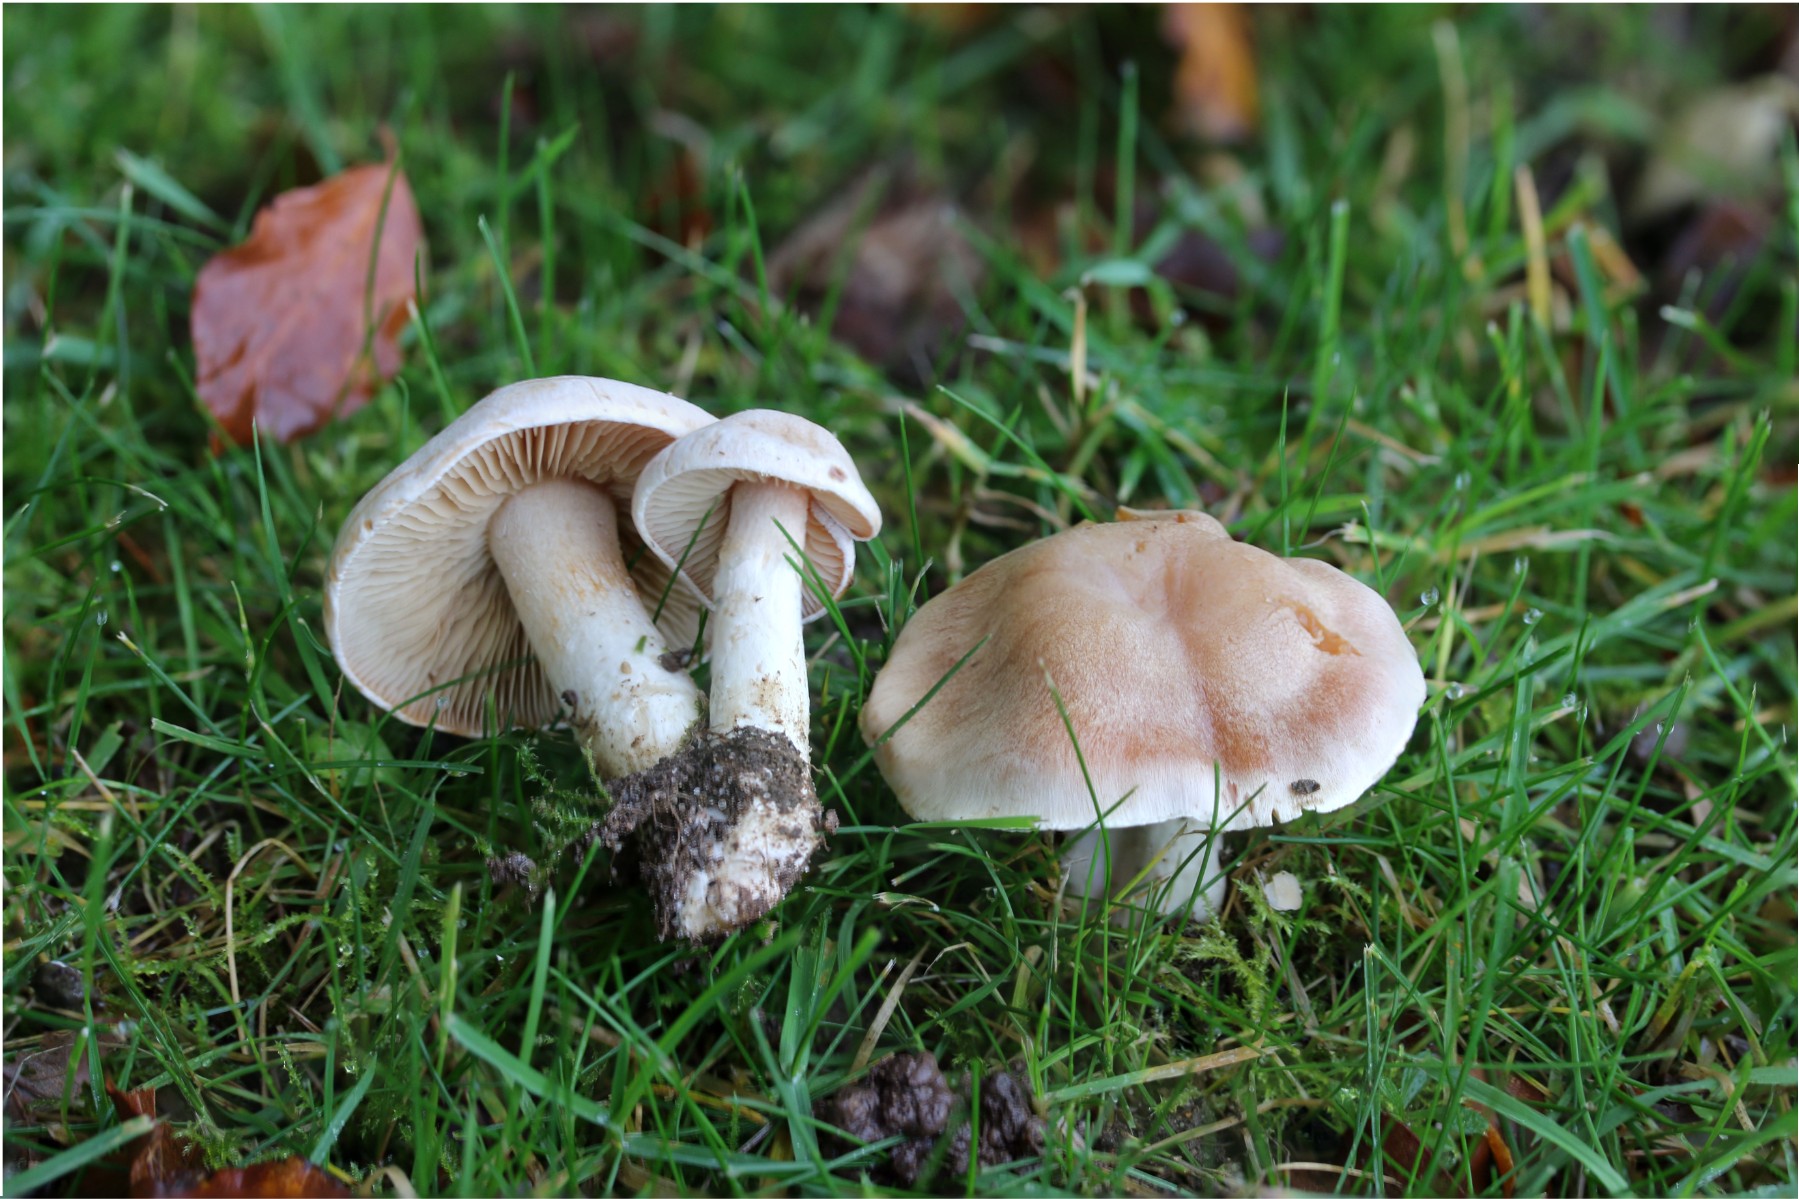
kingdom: Fungi
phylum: Basidiomycota
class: Agaricomycetes
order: Agaricales
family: Cortinariaceae
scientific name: Cortinariaceae
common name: slørhatfamilien
